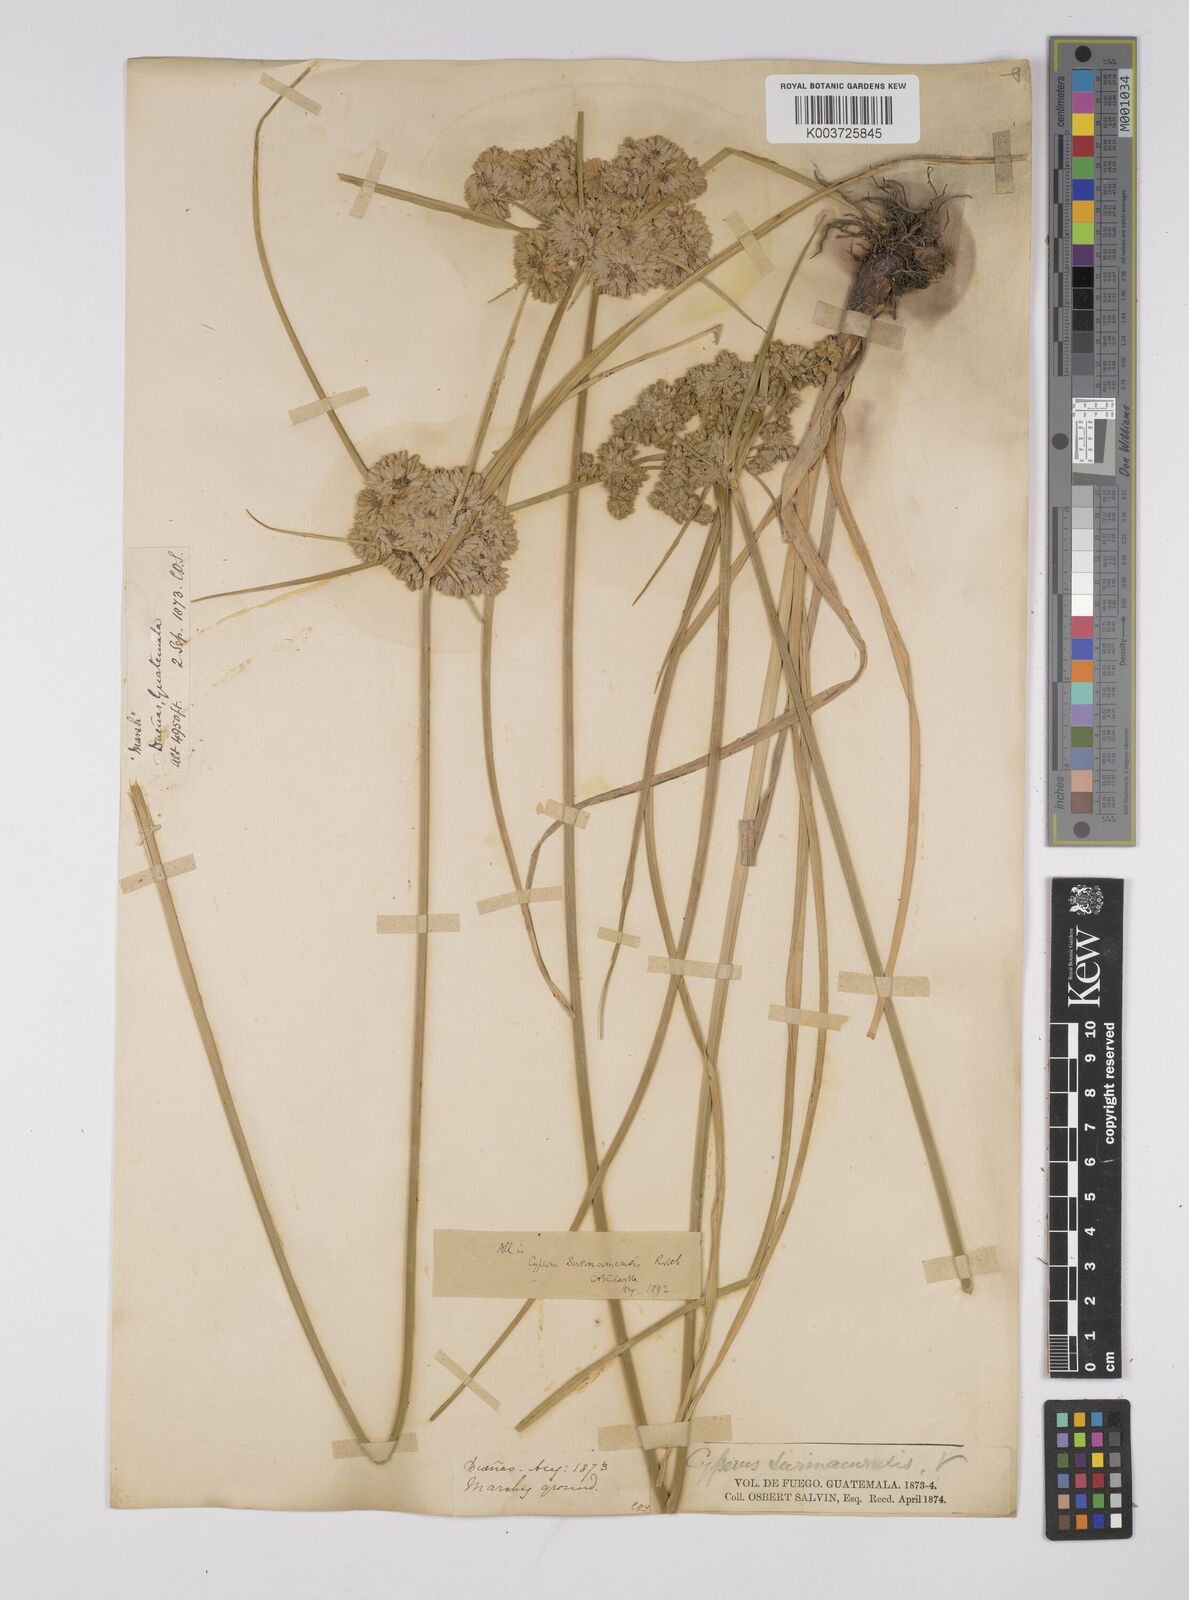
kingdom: Plantae
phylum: Tracheophyta
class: Liliopsida
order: Poales
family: Cyperaceae
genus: Cyperus
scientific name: Cyperus surinamensis
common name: Tropical flat sedge
